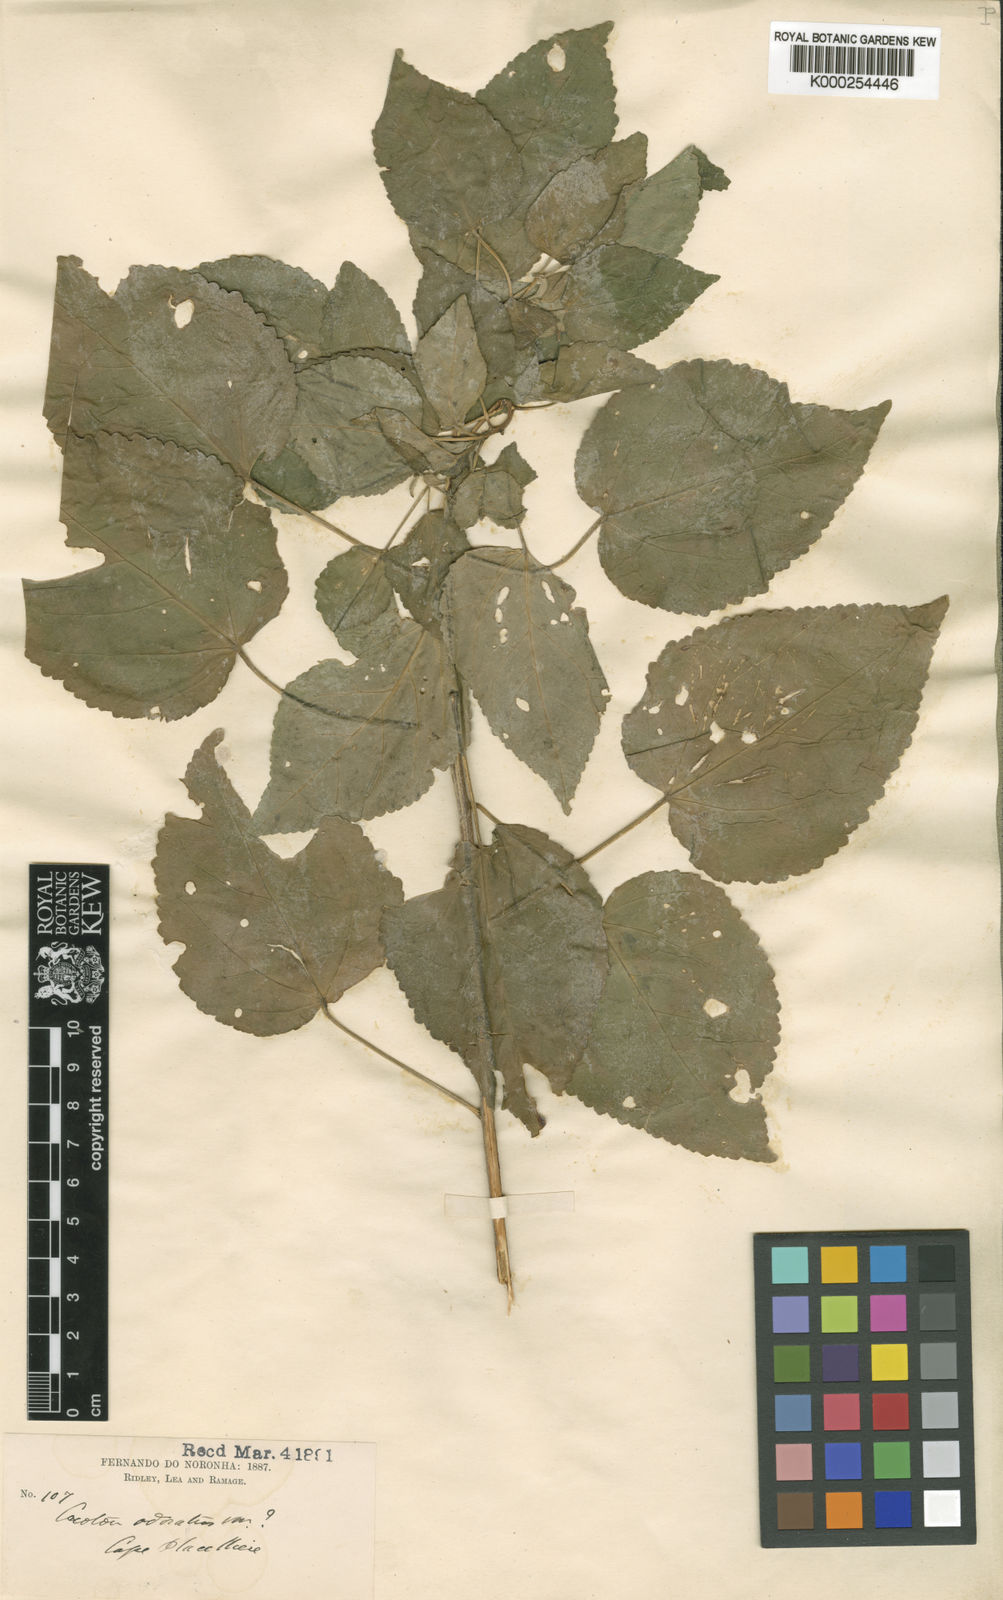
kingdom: Plantae
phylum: Tracheophyta
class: Magnoliopsida
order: Malpighiales
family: Euphorbiaceae
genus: Croton
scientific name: Croton hircinus
